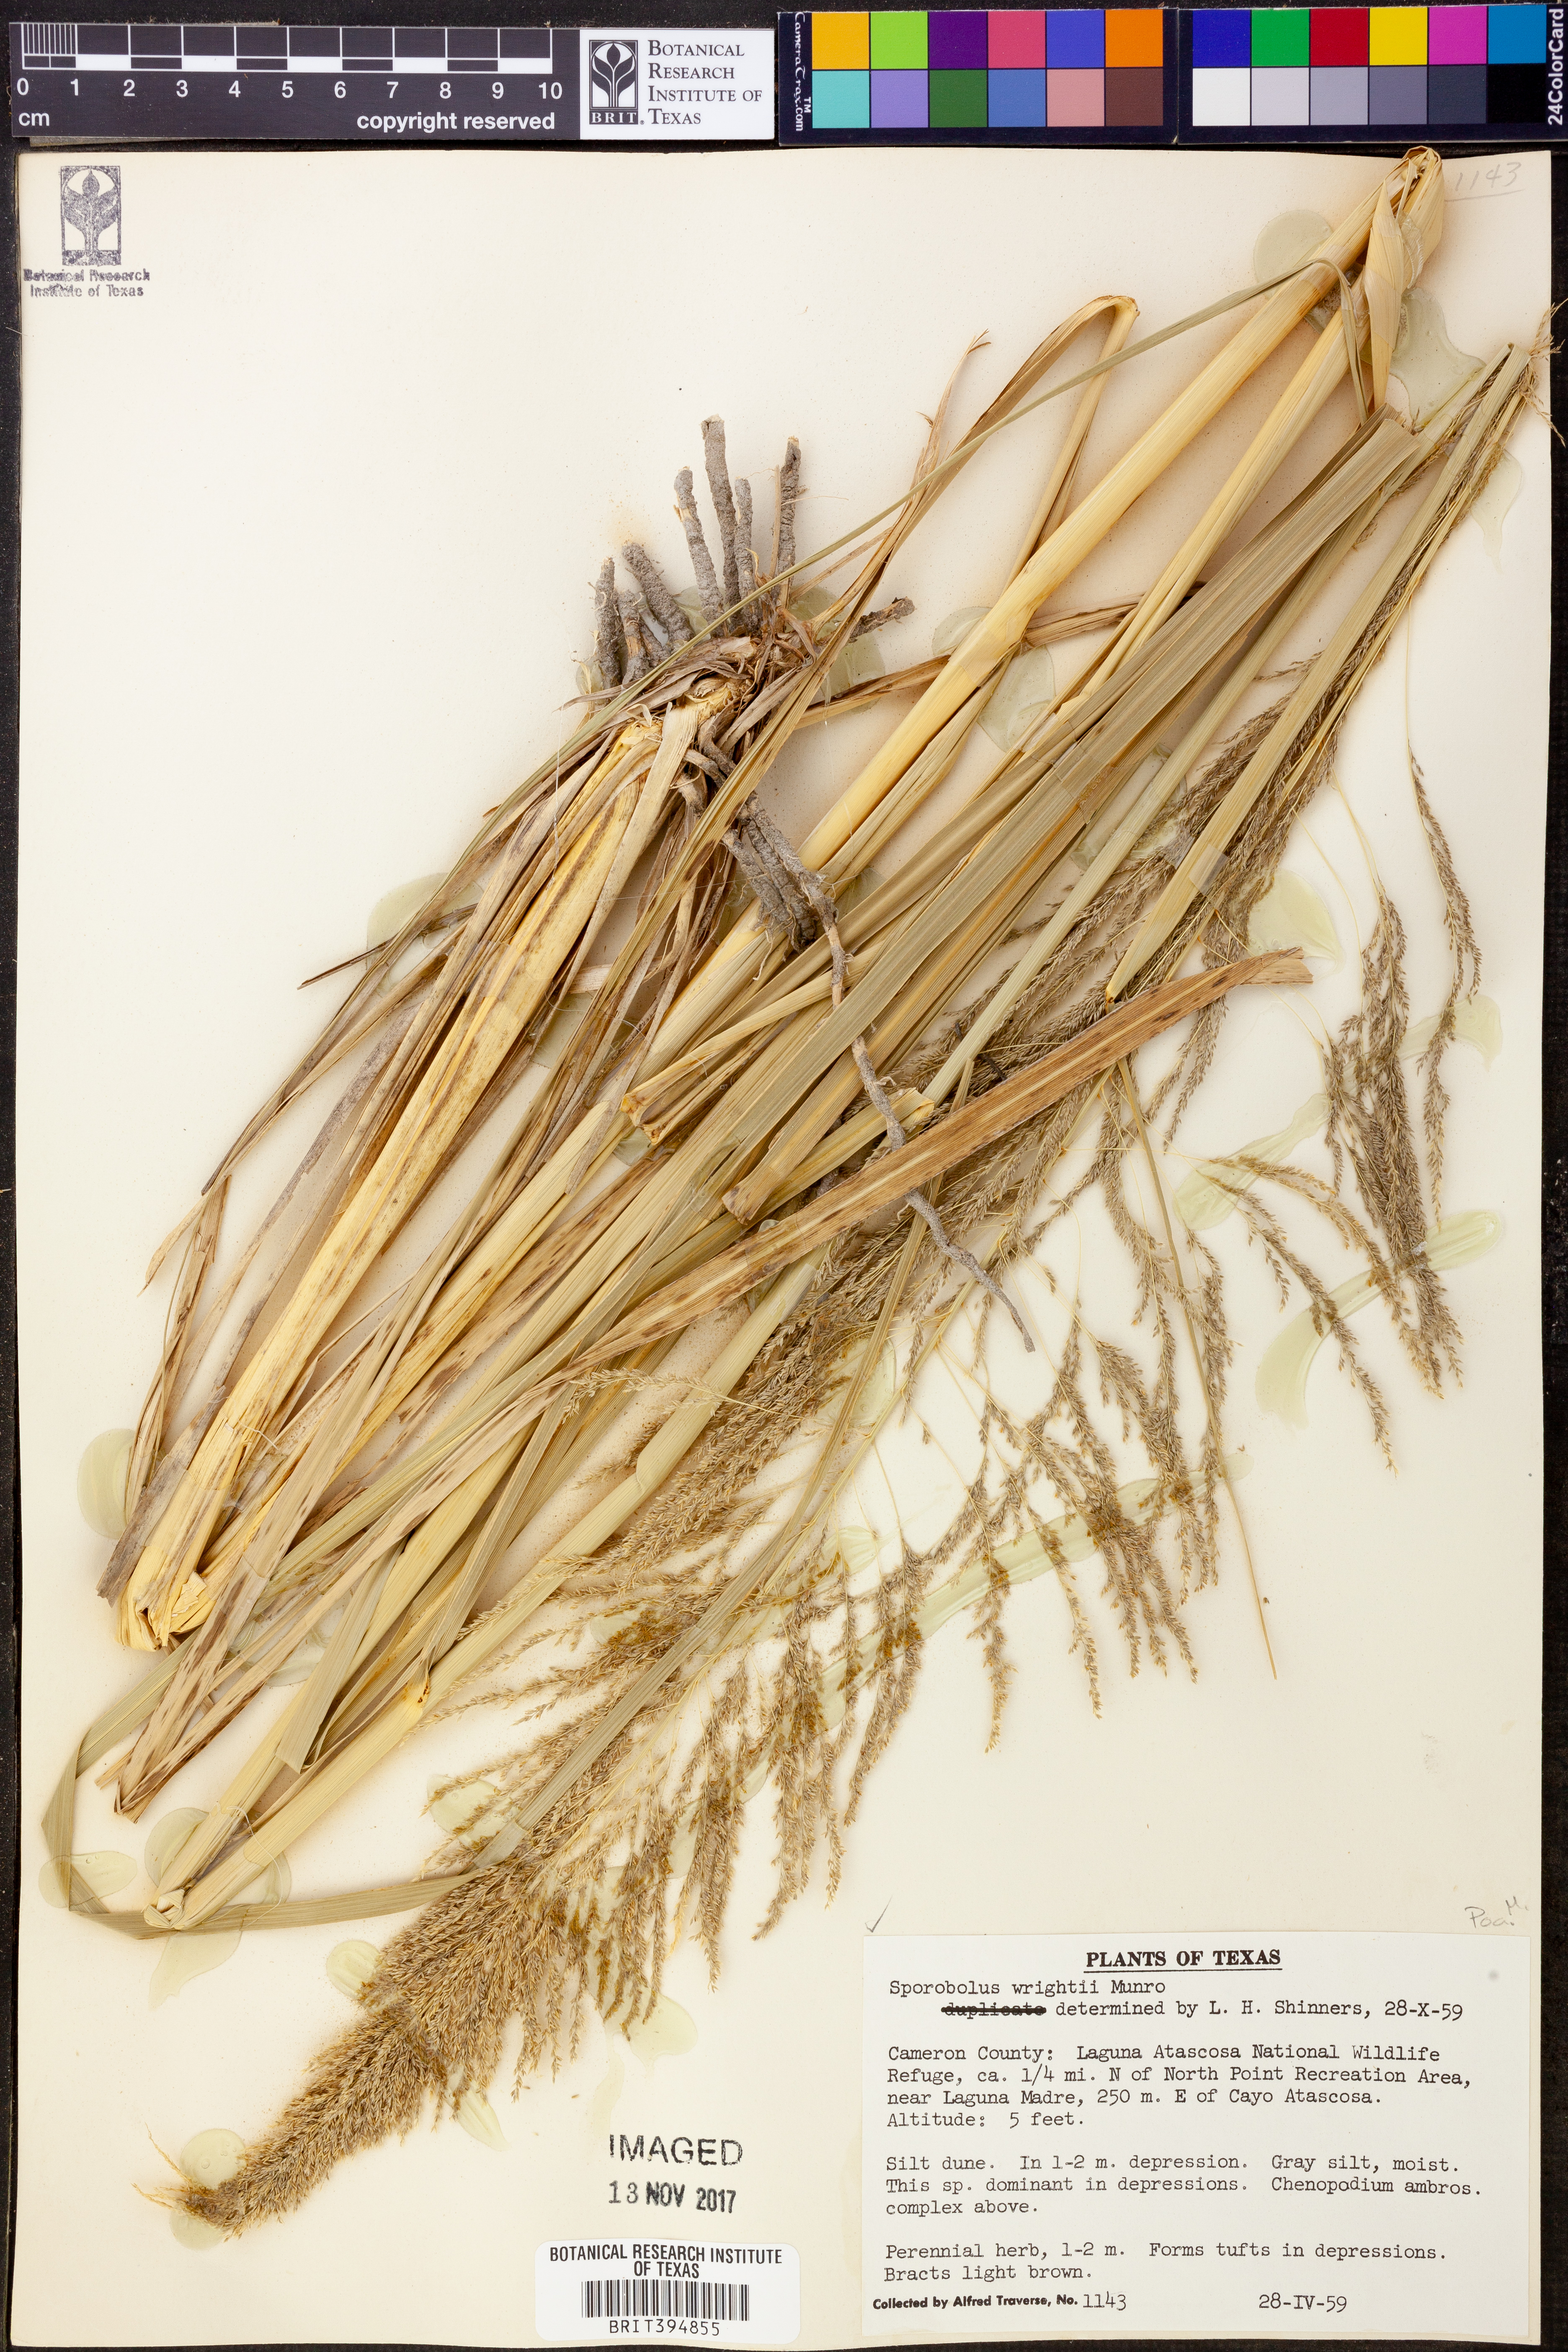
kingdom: Plantae
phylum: Tracheophyta
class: Liliopsida
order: Poales
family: Poaceae
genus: Sporobolus
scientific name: Sporobolus wrightii
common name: Big alkali sacaton
